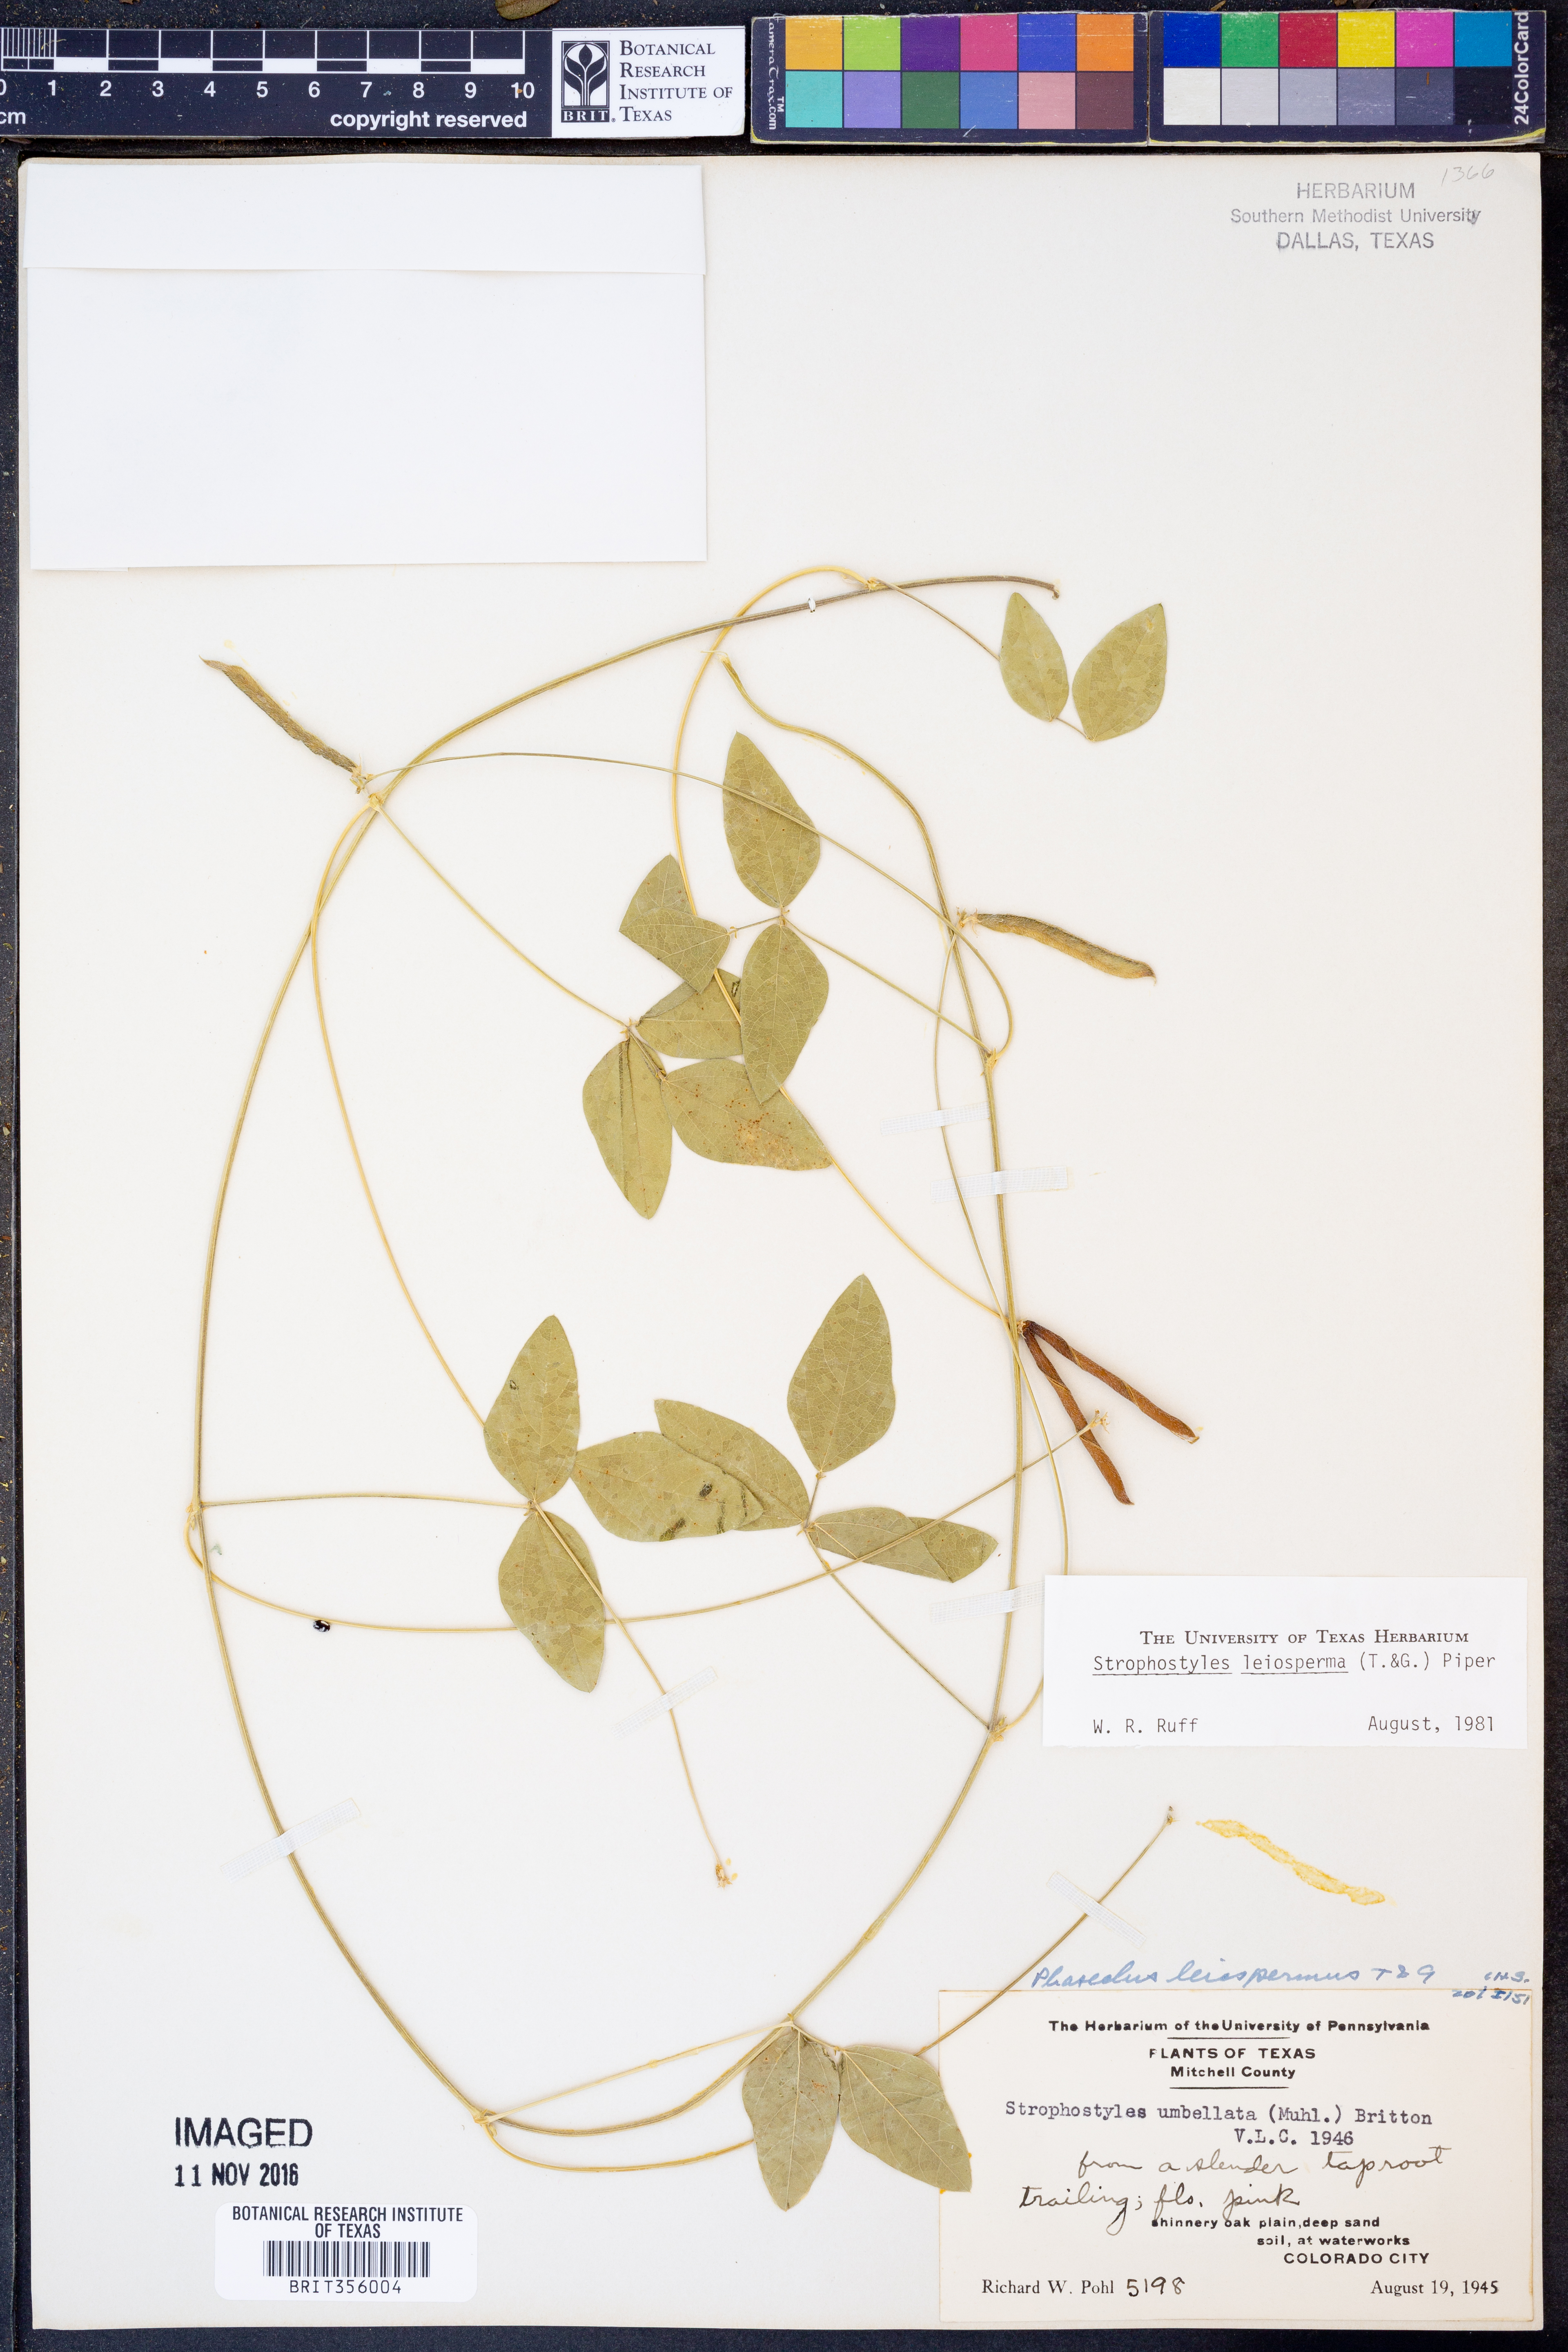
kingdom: Plantae
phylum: Tracheophyta
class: Magnoliopsida
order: Fabales
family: Fabaceae
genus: Strophostyles
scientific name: Strophostyles leiosperma
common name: Smooth-seed wild bean
